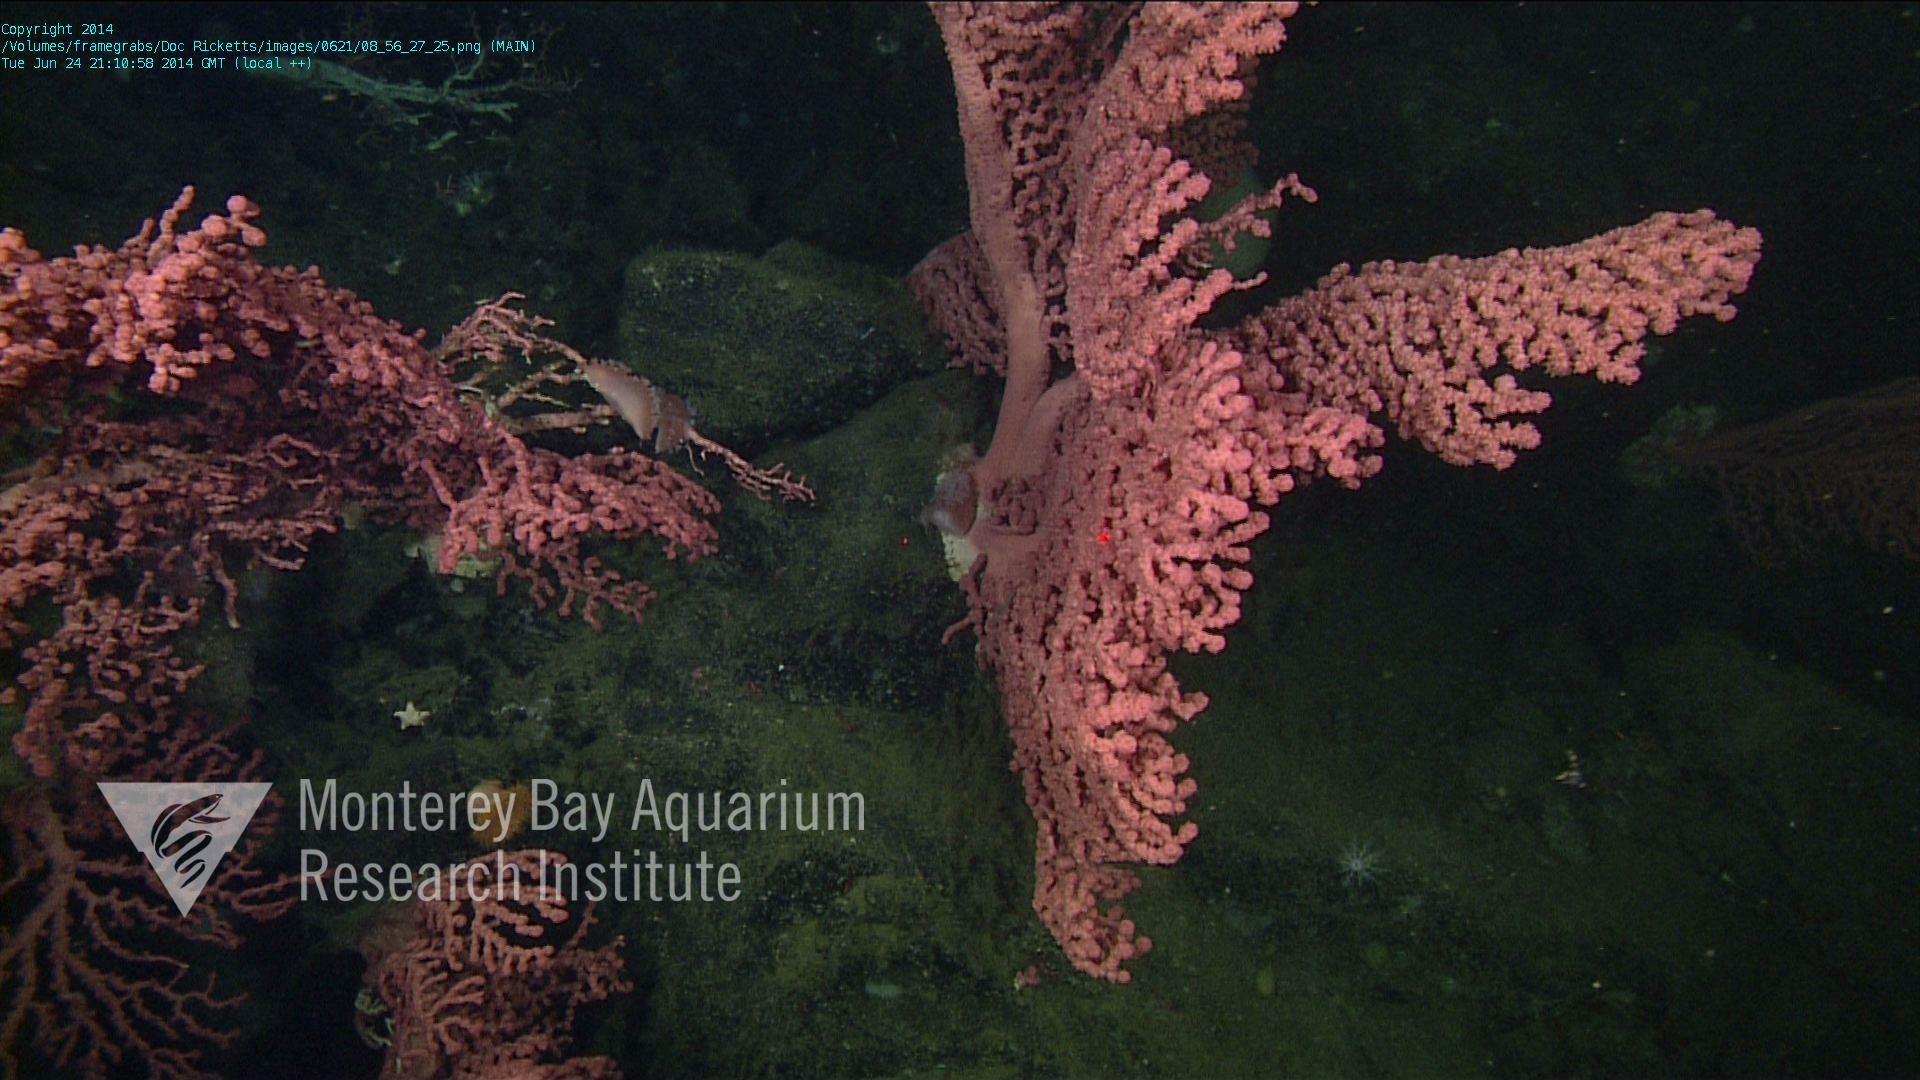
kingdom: Animalia
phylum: Cnidaria
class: Anthozoa
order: Scleralcyonacea
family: Coralliidae
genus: Paragorgia
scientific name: Paragorgia
